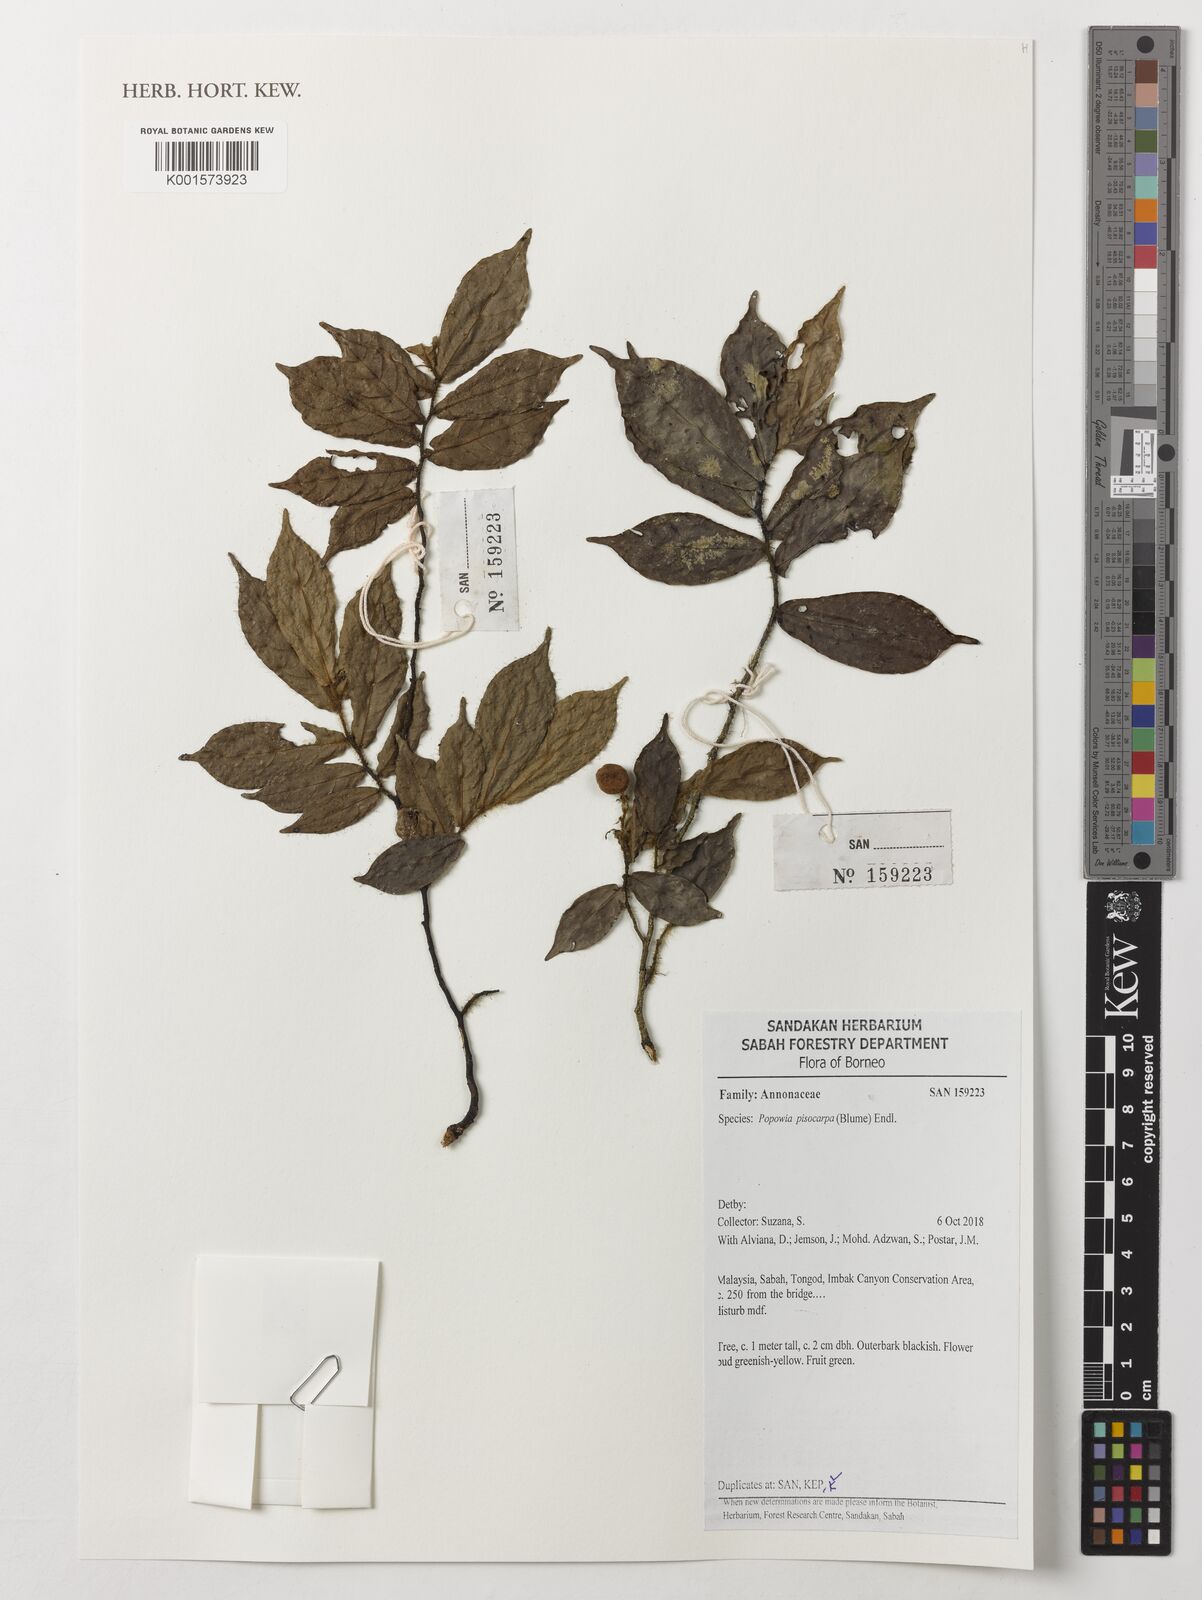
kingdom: Plantae
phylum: Tracheophyta
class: Magnoliopsida
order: Magnoliales
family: Annonaceae
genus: Popowia
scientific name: Popowia pisocarpa
